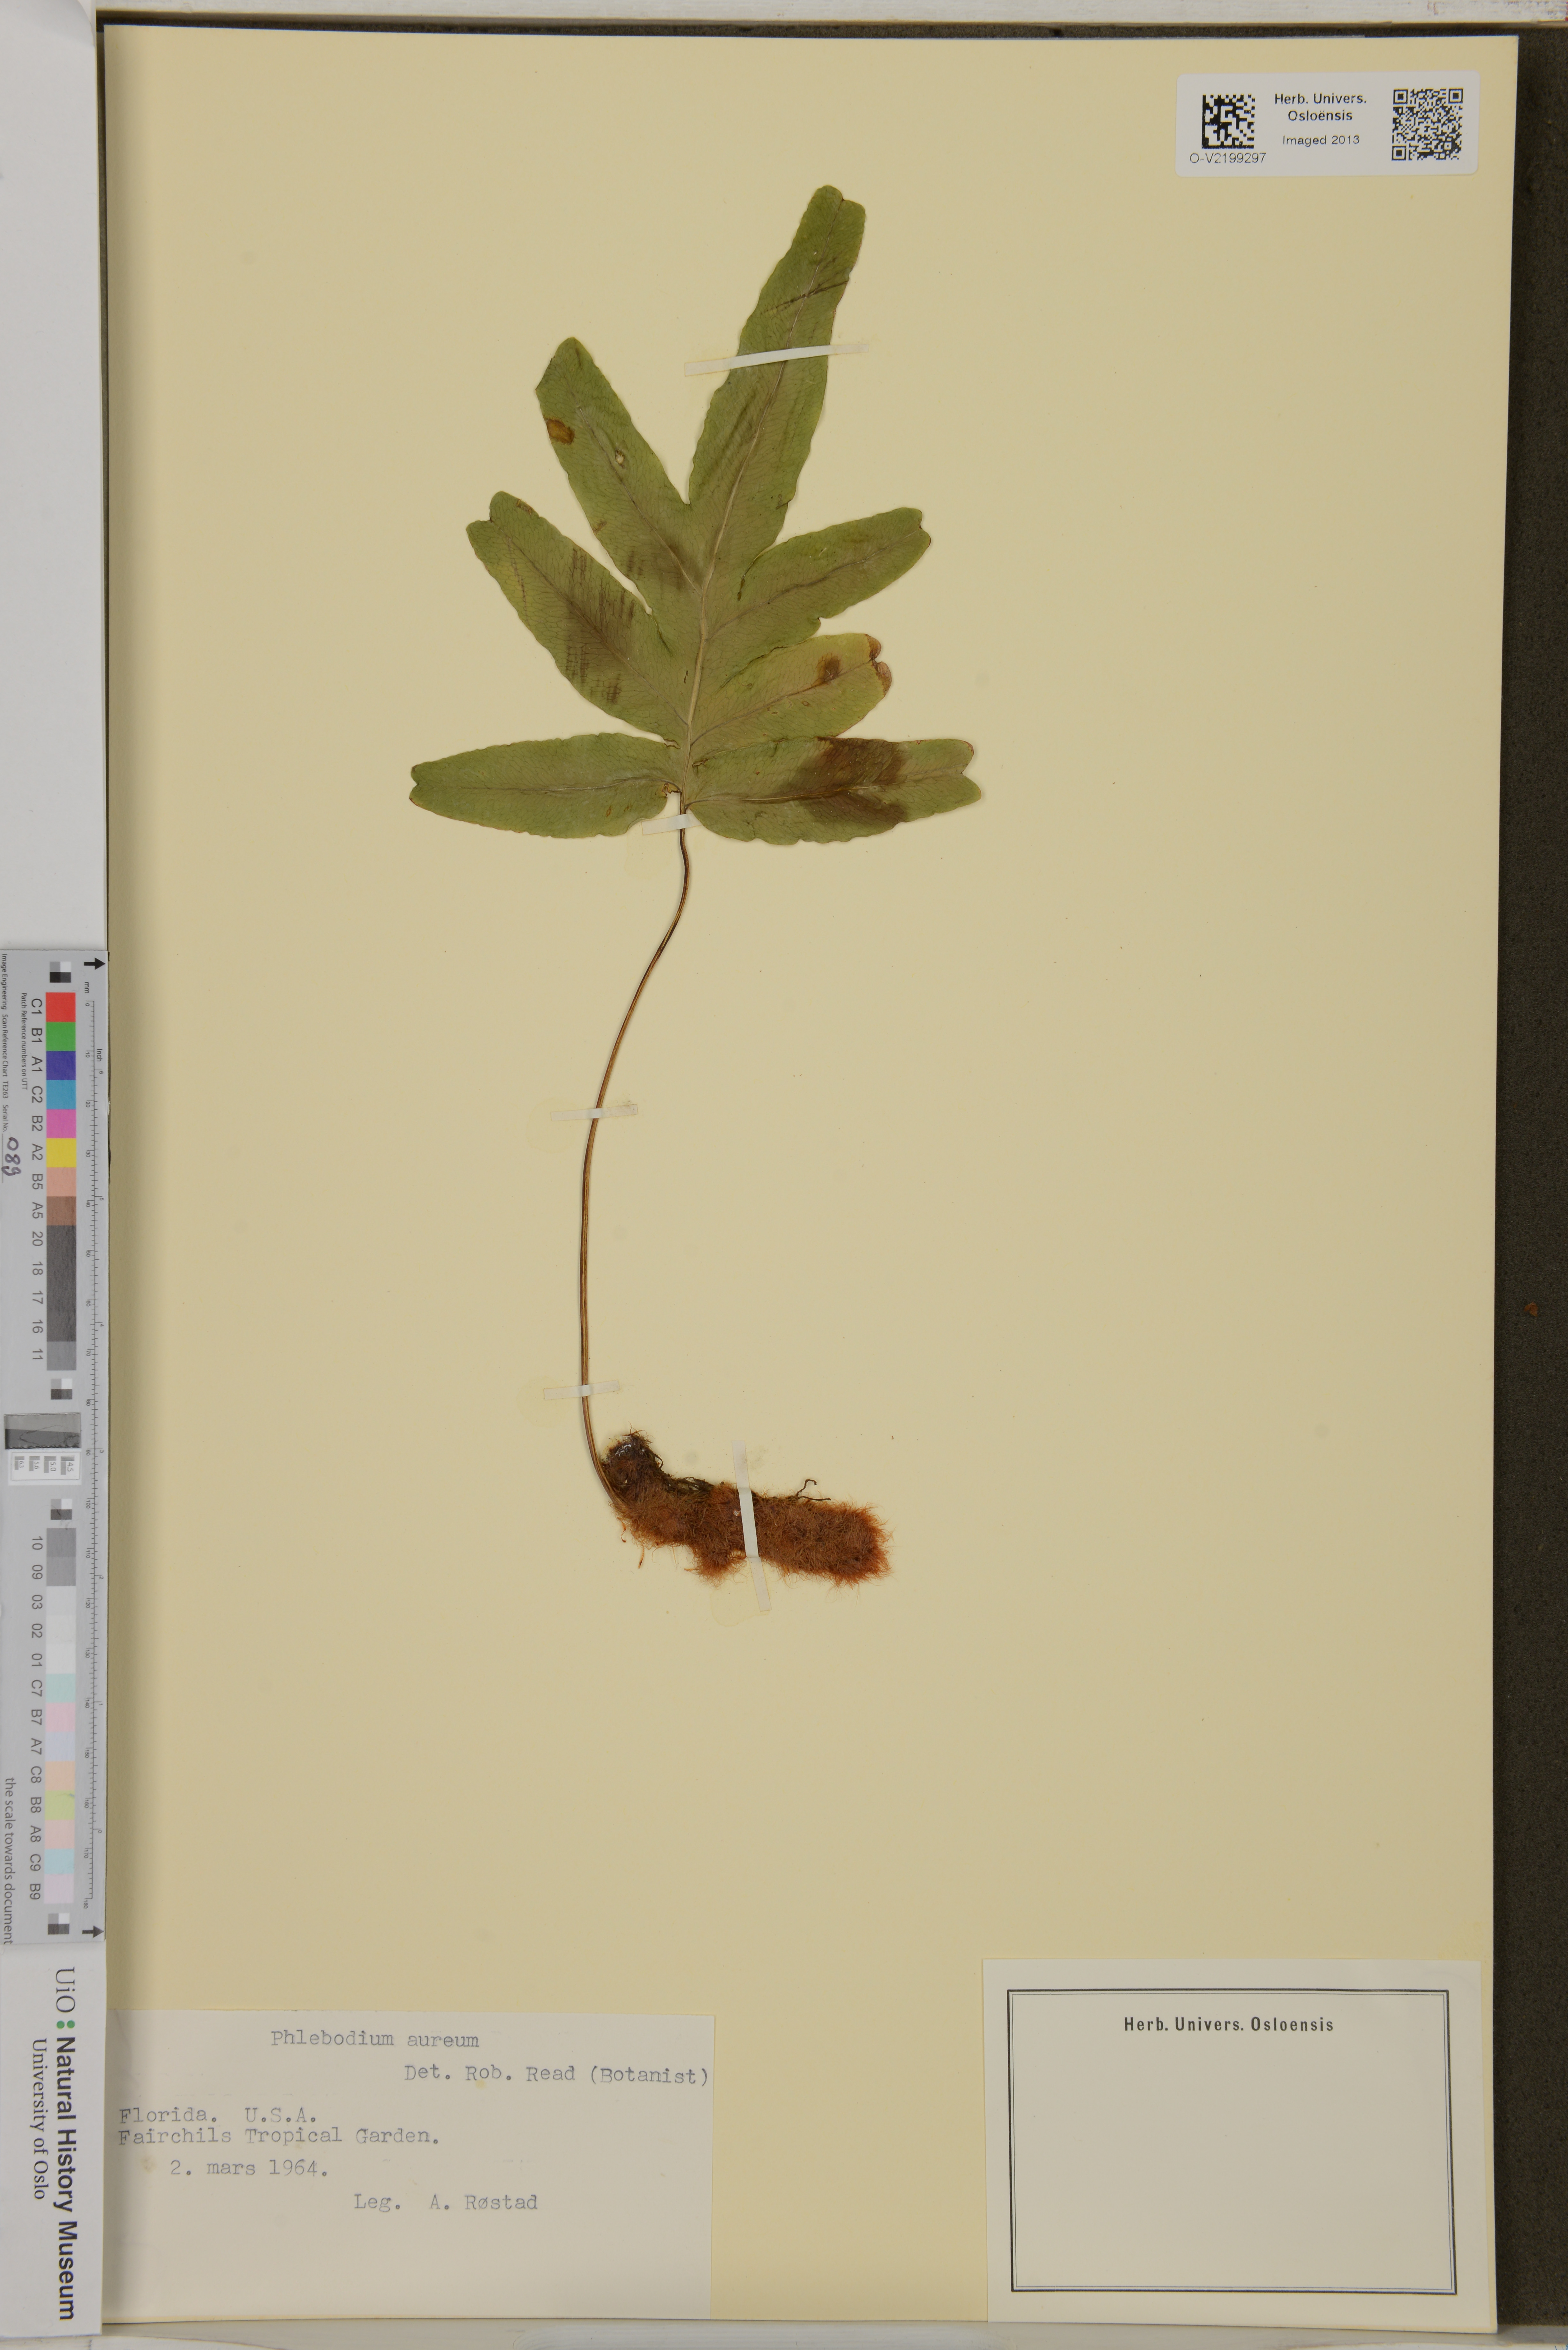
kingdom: Plantae
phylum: Tracheophyta
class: Polypodiopsida
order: Polypodiales
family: Polypodiaceae
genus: Phlebodium
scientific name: Phlebodium aureum
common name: Gold-foot fern
